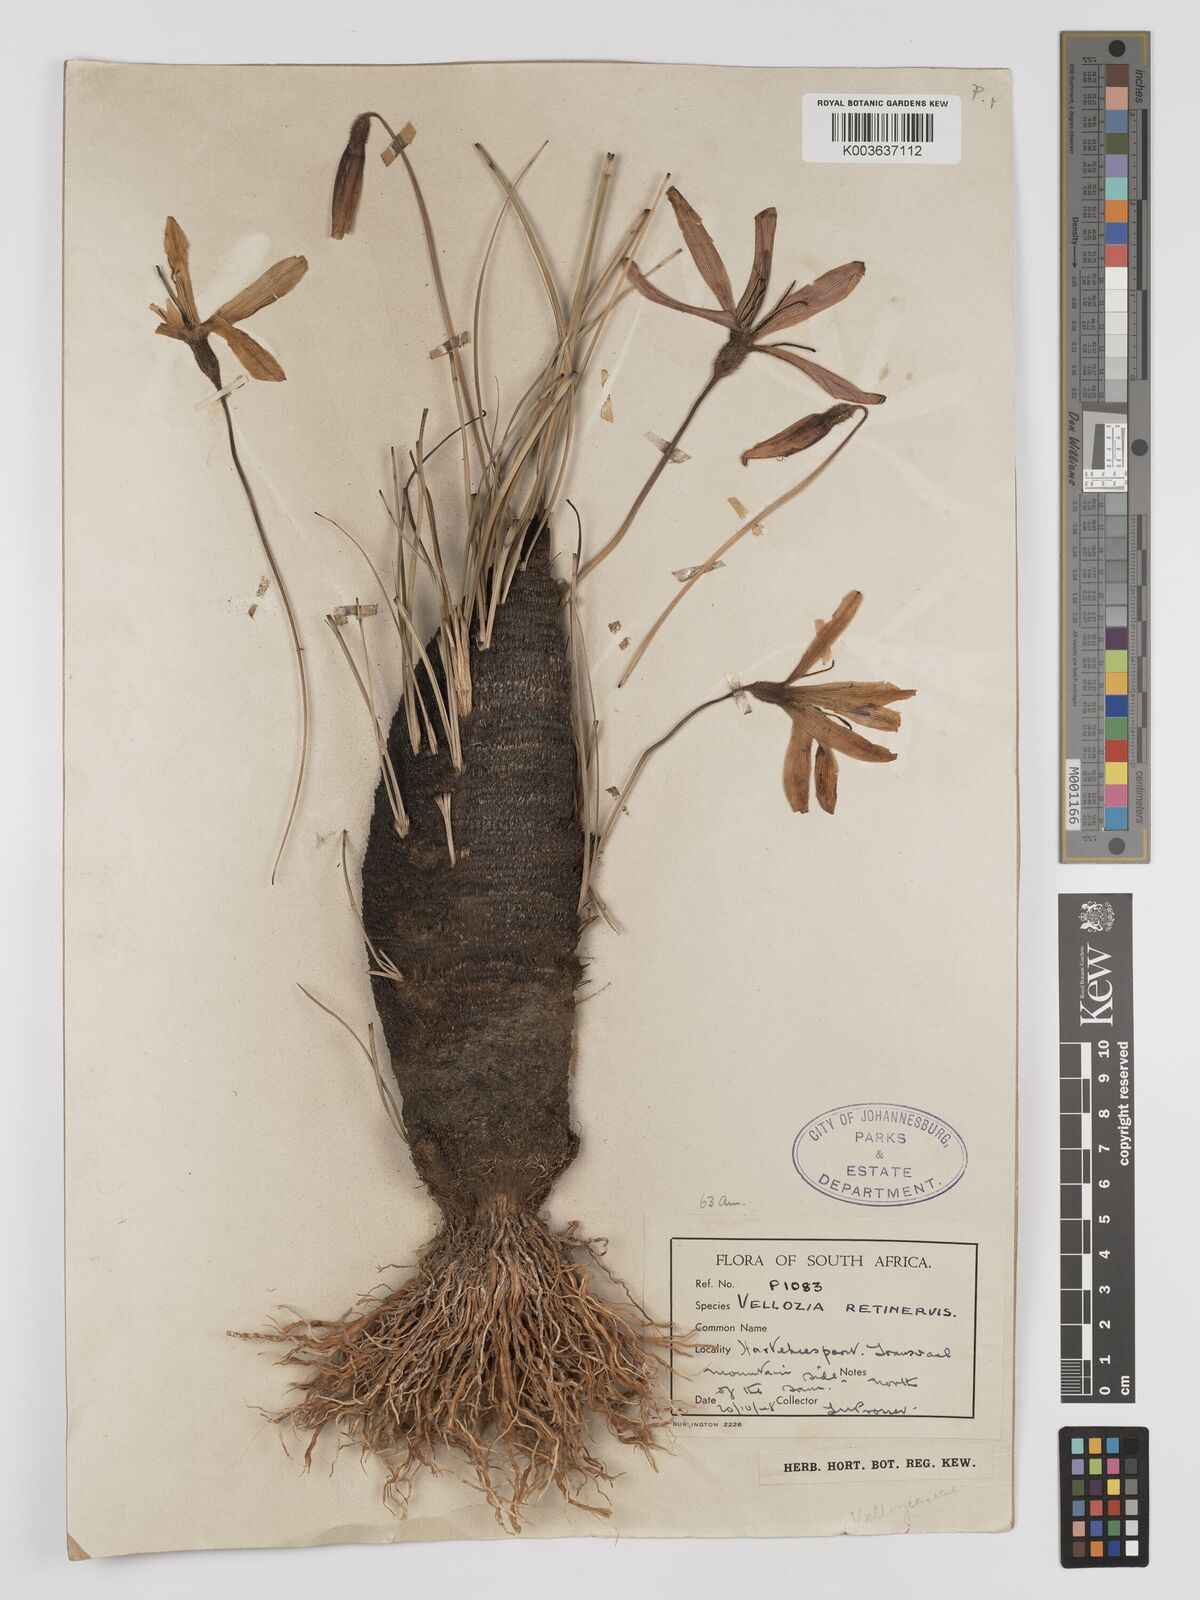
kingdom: Plantae
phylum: Tracheophyta
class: Liliopsida
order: Pandanales
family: Velloziaceae
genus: Xerophyta
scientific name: Xerophyta retinervis
